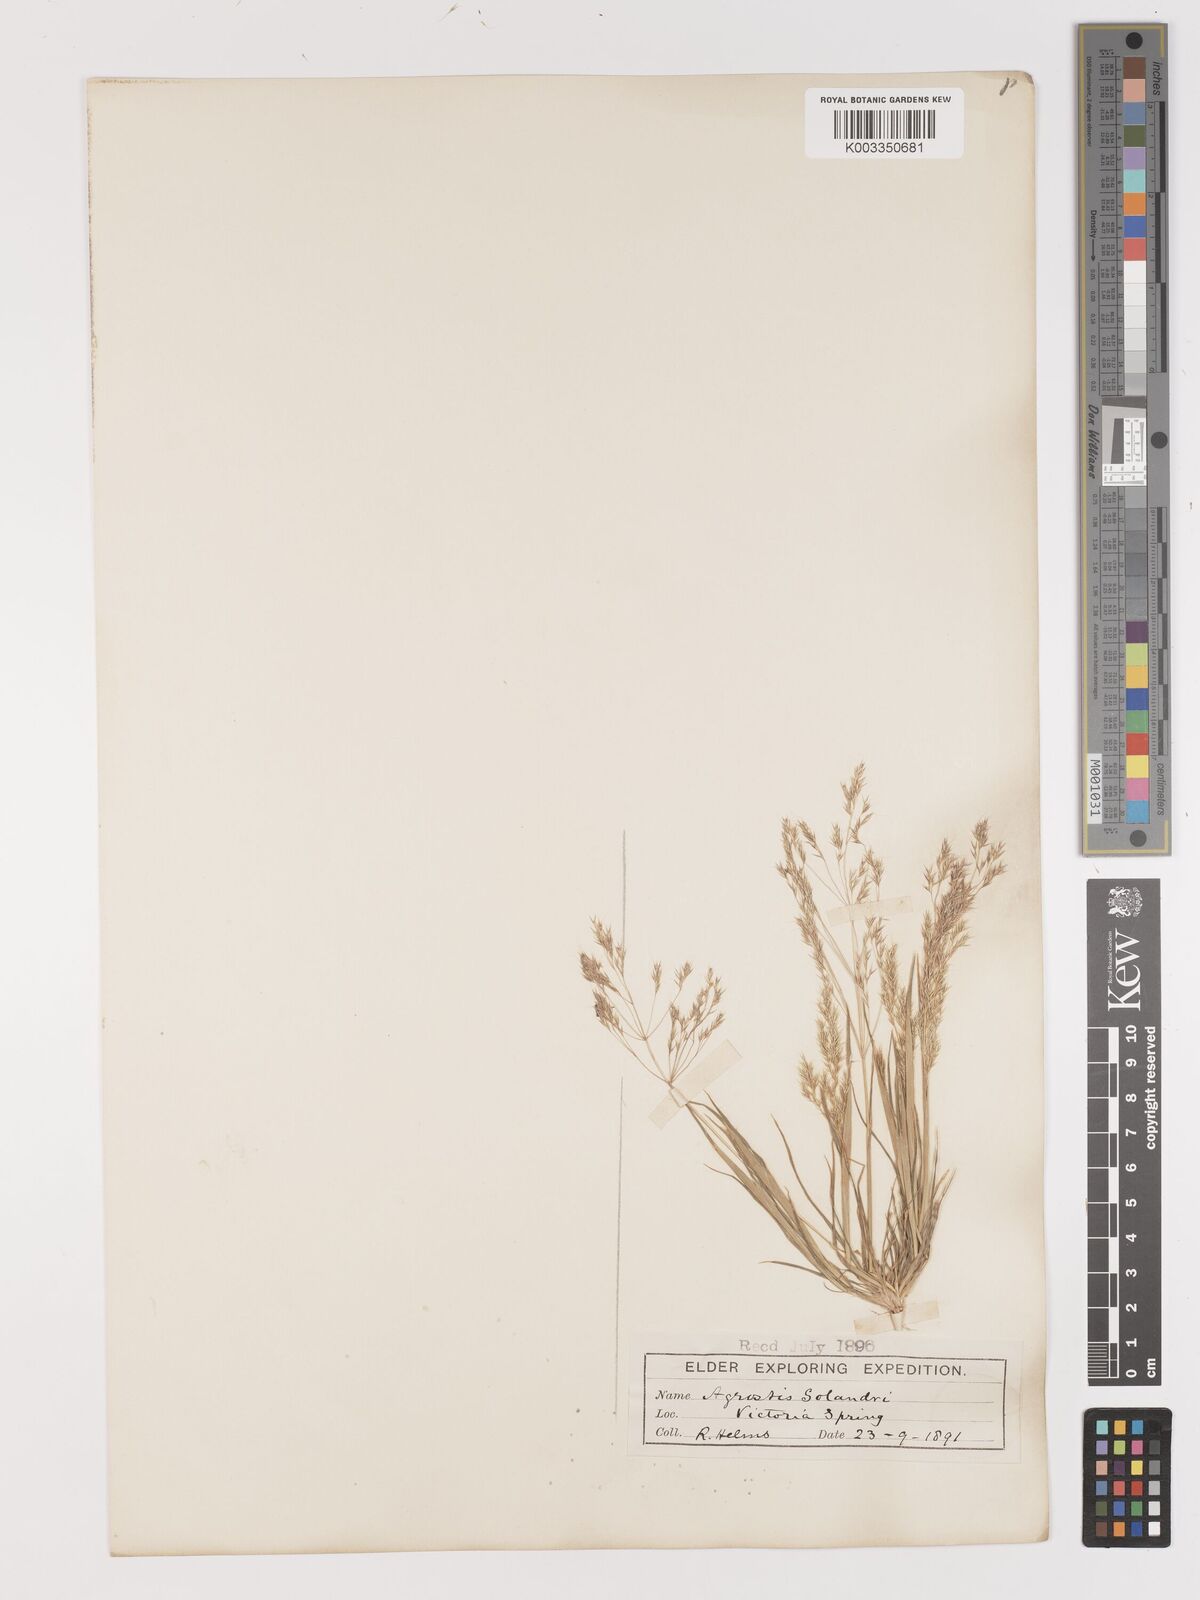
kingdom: Plantae
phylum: Tracheophyta
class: Liliopsida
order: Poales
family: Poaceae
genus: Lachnagrostis
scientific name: Lachnagrostis aemula
